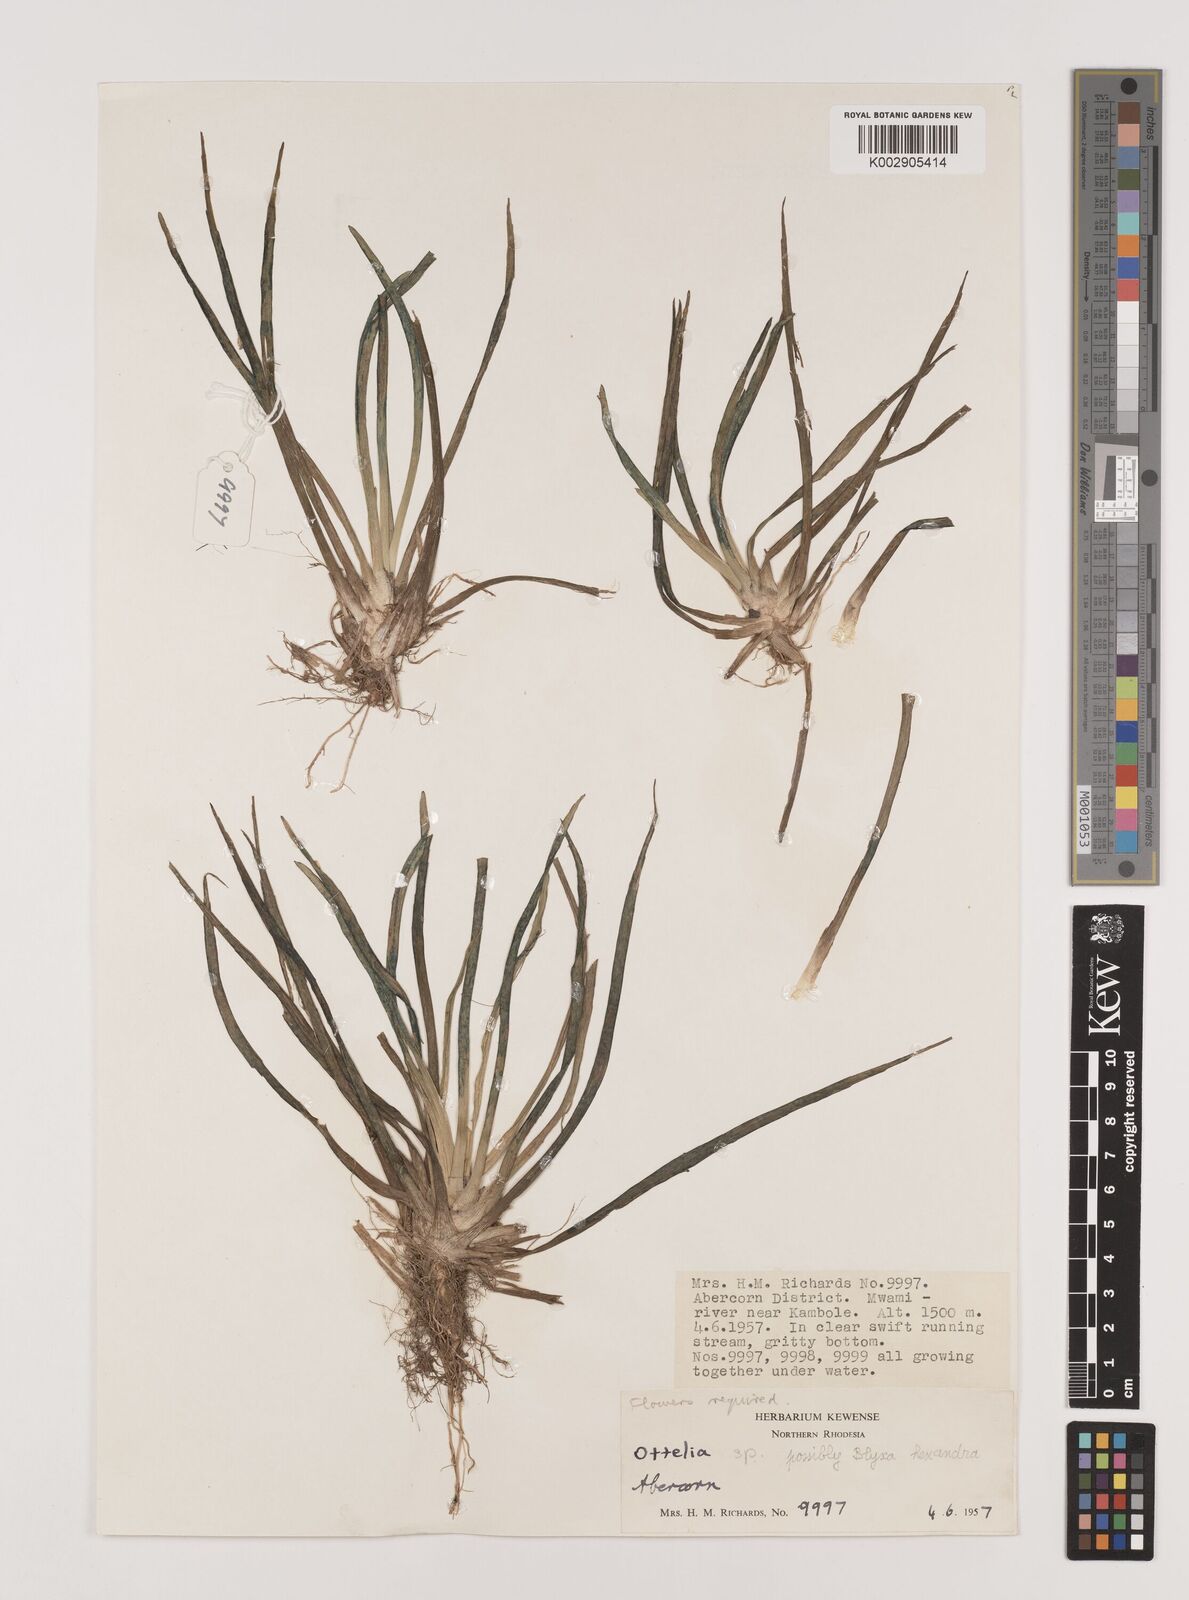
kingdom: Plantae
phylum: Tracheophyta
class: Liliopsida
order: Alismatales
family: Hydrocharitaceae
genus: Blyxa
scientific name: Blyxa hexandra
